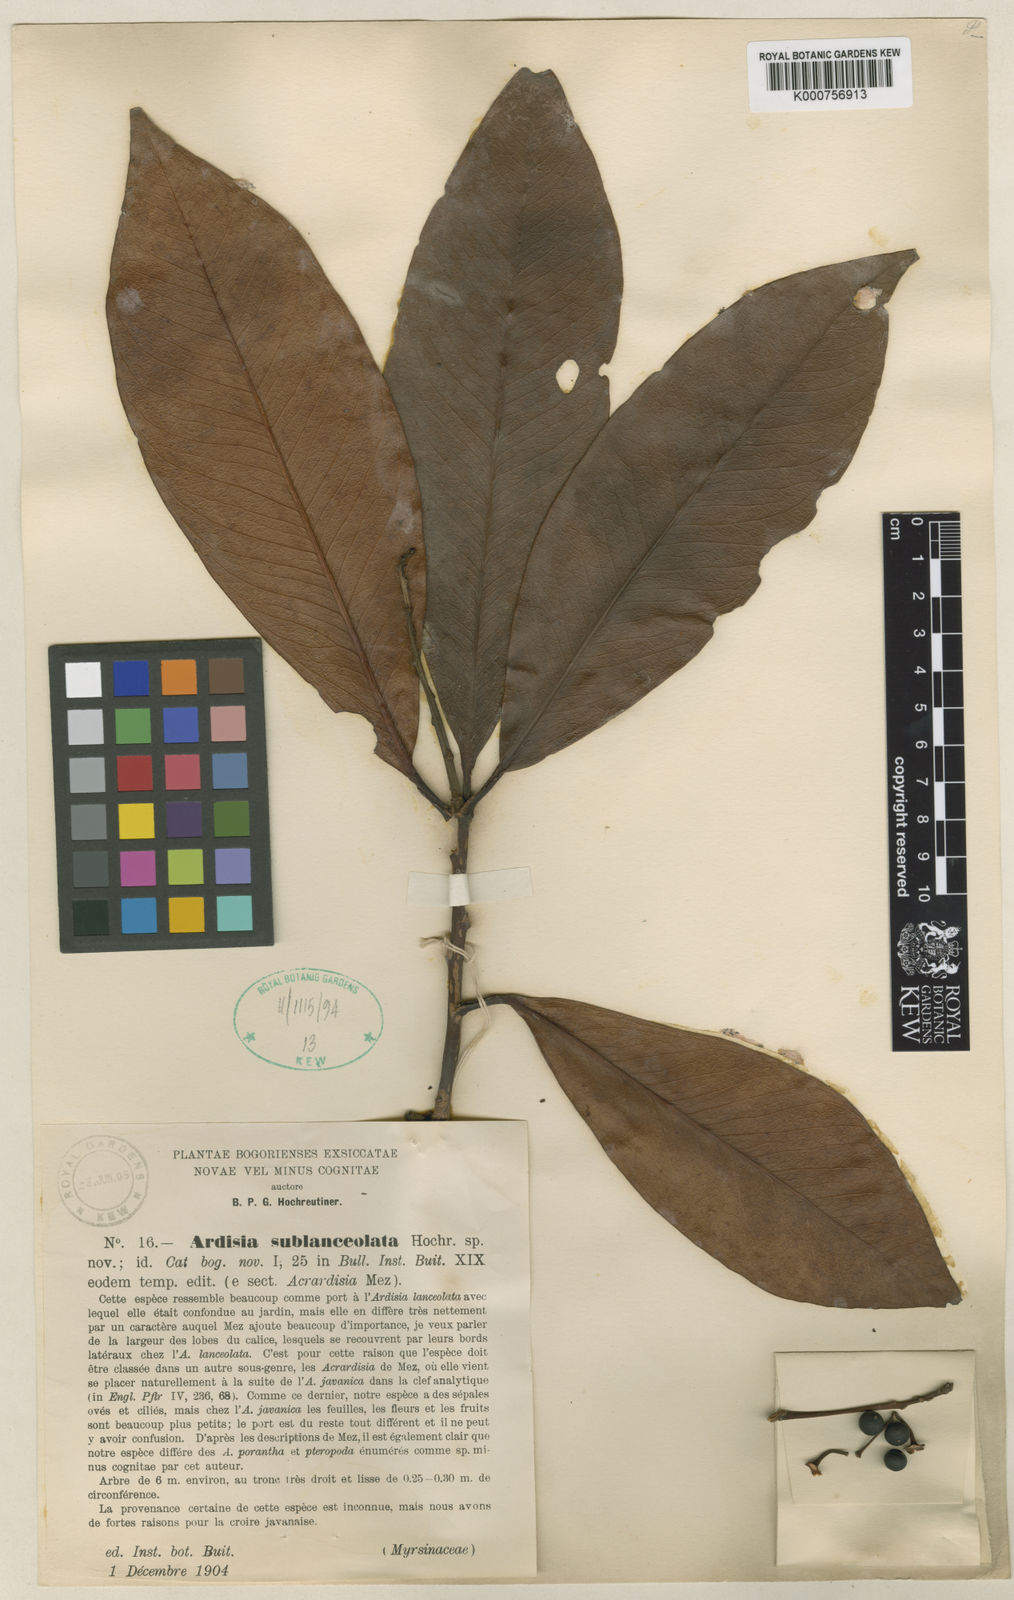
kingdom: Plantae
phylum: Tracheophyta
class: Magnoliopsida
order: Ericales
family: Primulaceae
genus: Ardisia
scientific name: Ardisia sublanceolata
